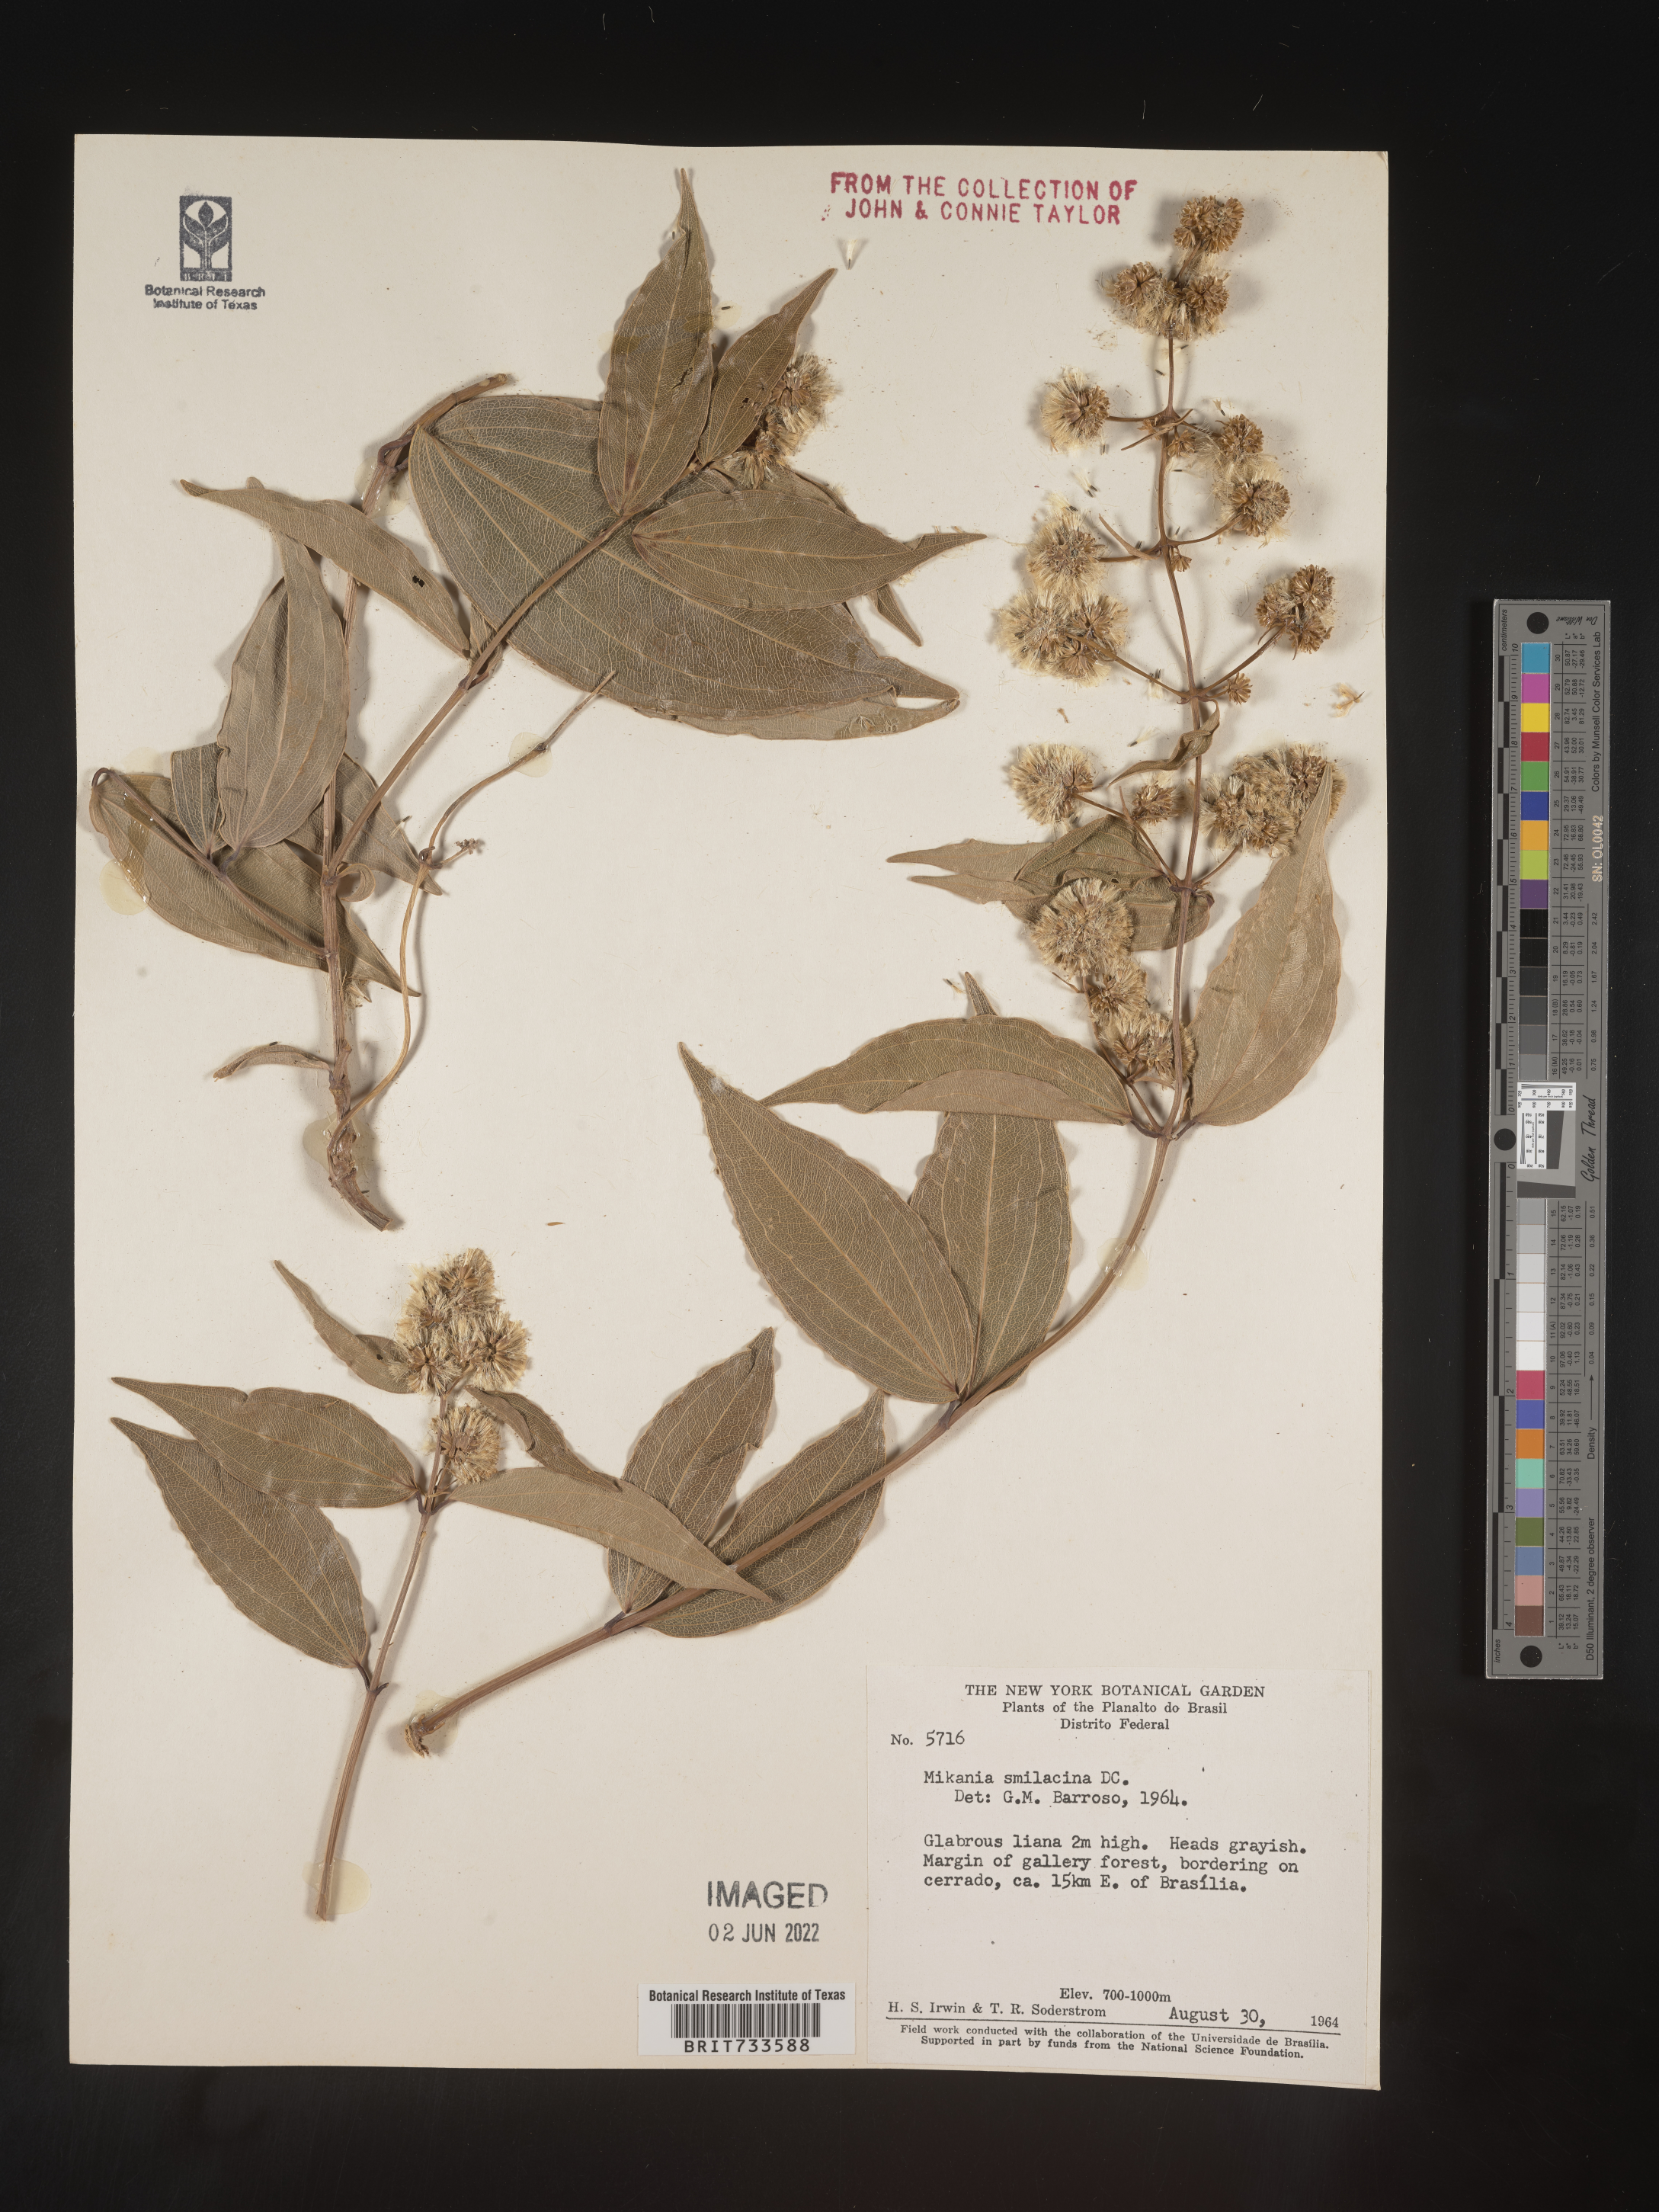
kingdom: Plantae
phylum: Tracheophyta
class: Magnoliopsida
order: Asterales
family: Asteraceae
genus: Mikania
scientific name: Mikania
